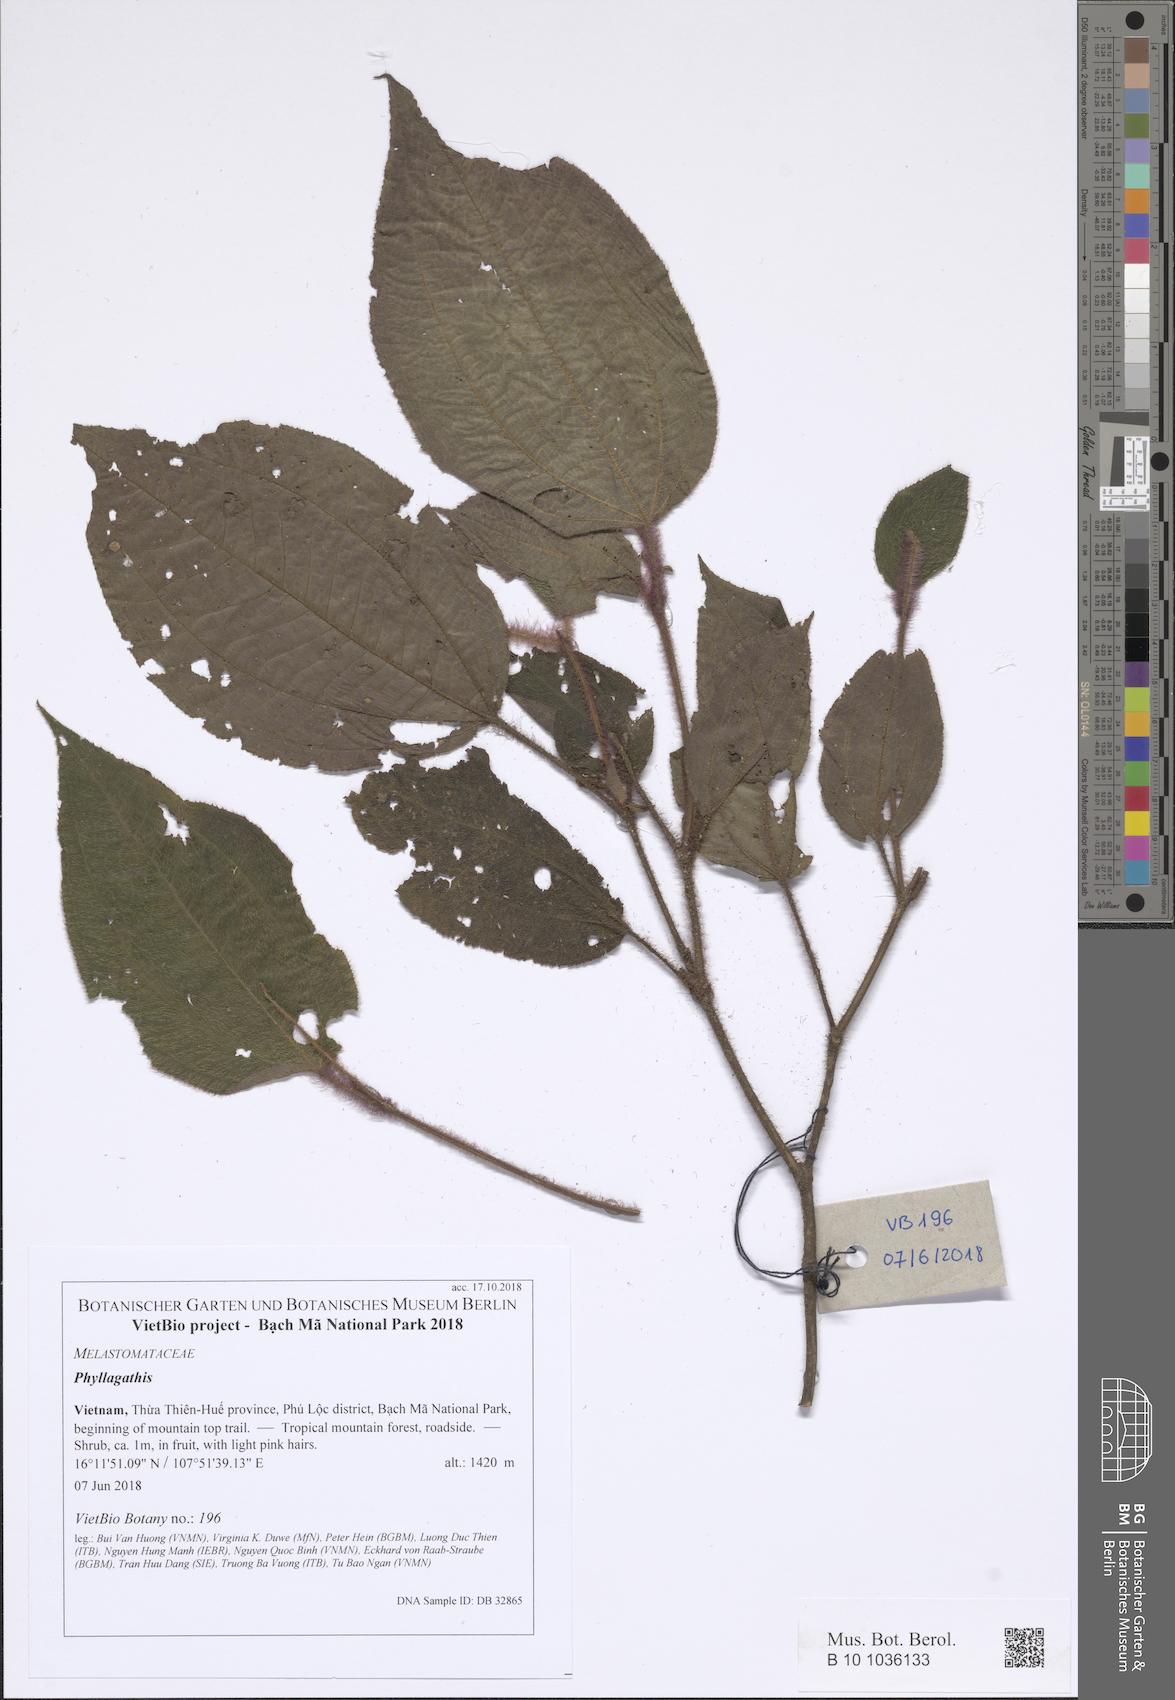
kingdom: Plantae
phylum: Tracheophyta
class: Magnoliopsida
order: Myrtales
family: Melastomataceae
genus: Phyllagathis
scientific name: Phyllagathis
